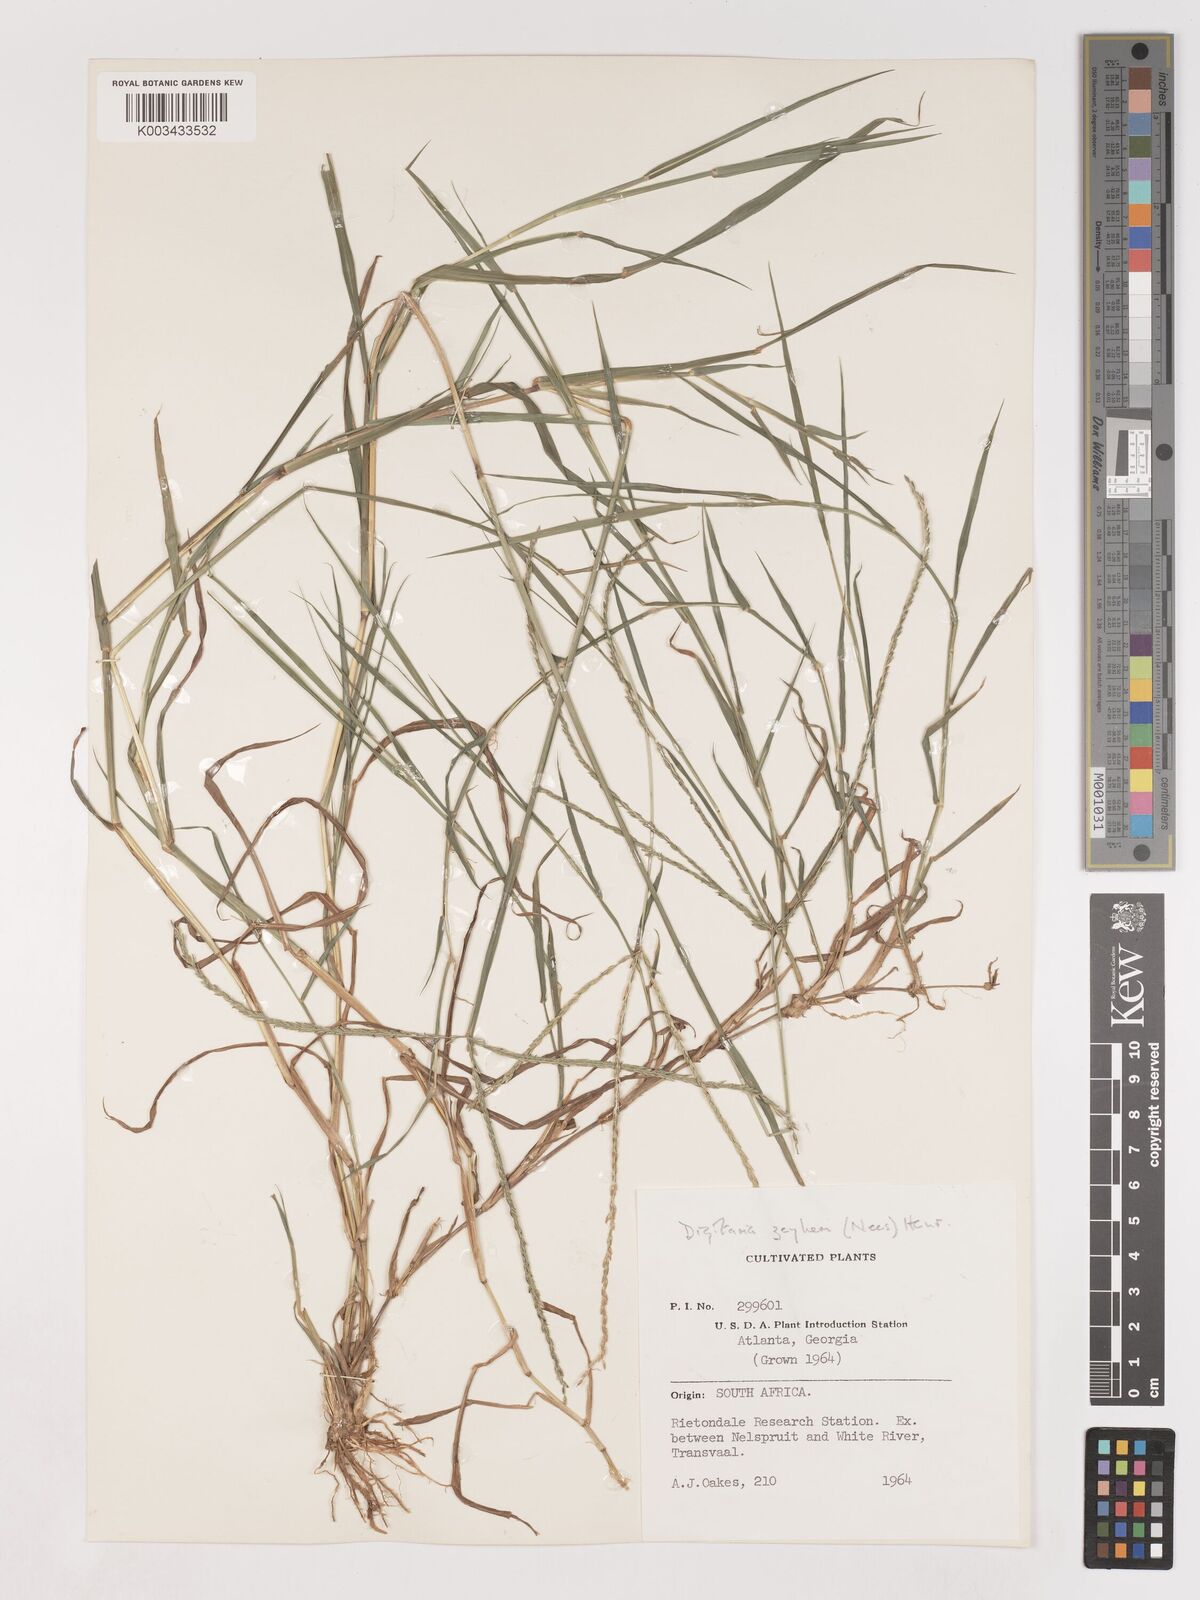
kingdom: Plantae
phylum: Tracheophyta
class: Liliopsida
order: Poales
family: Poaceae
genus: Digitaria
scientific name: Digitaria eriantha
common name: Digitgrass
